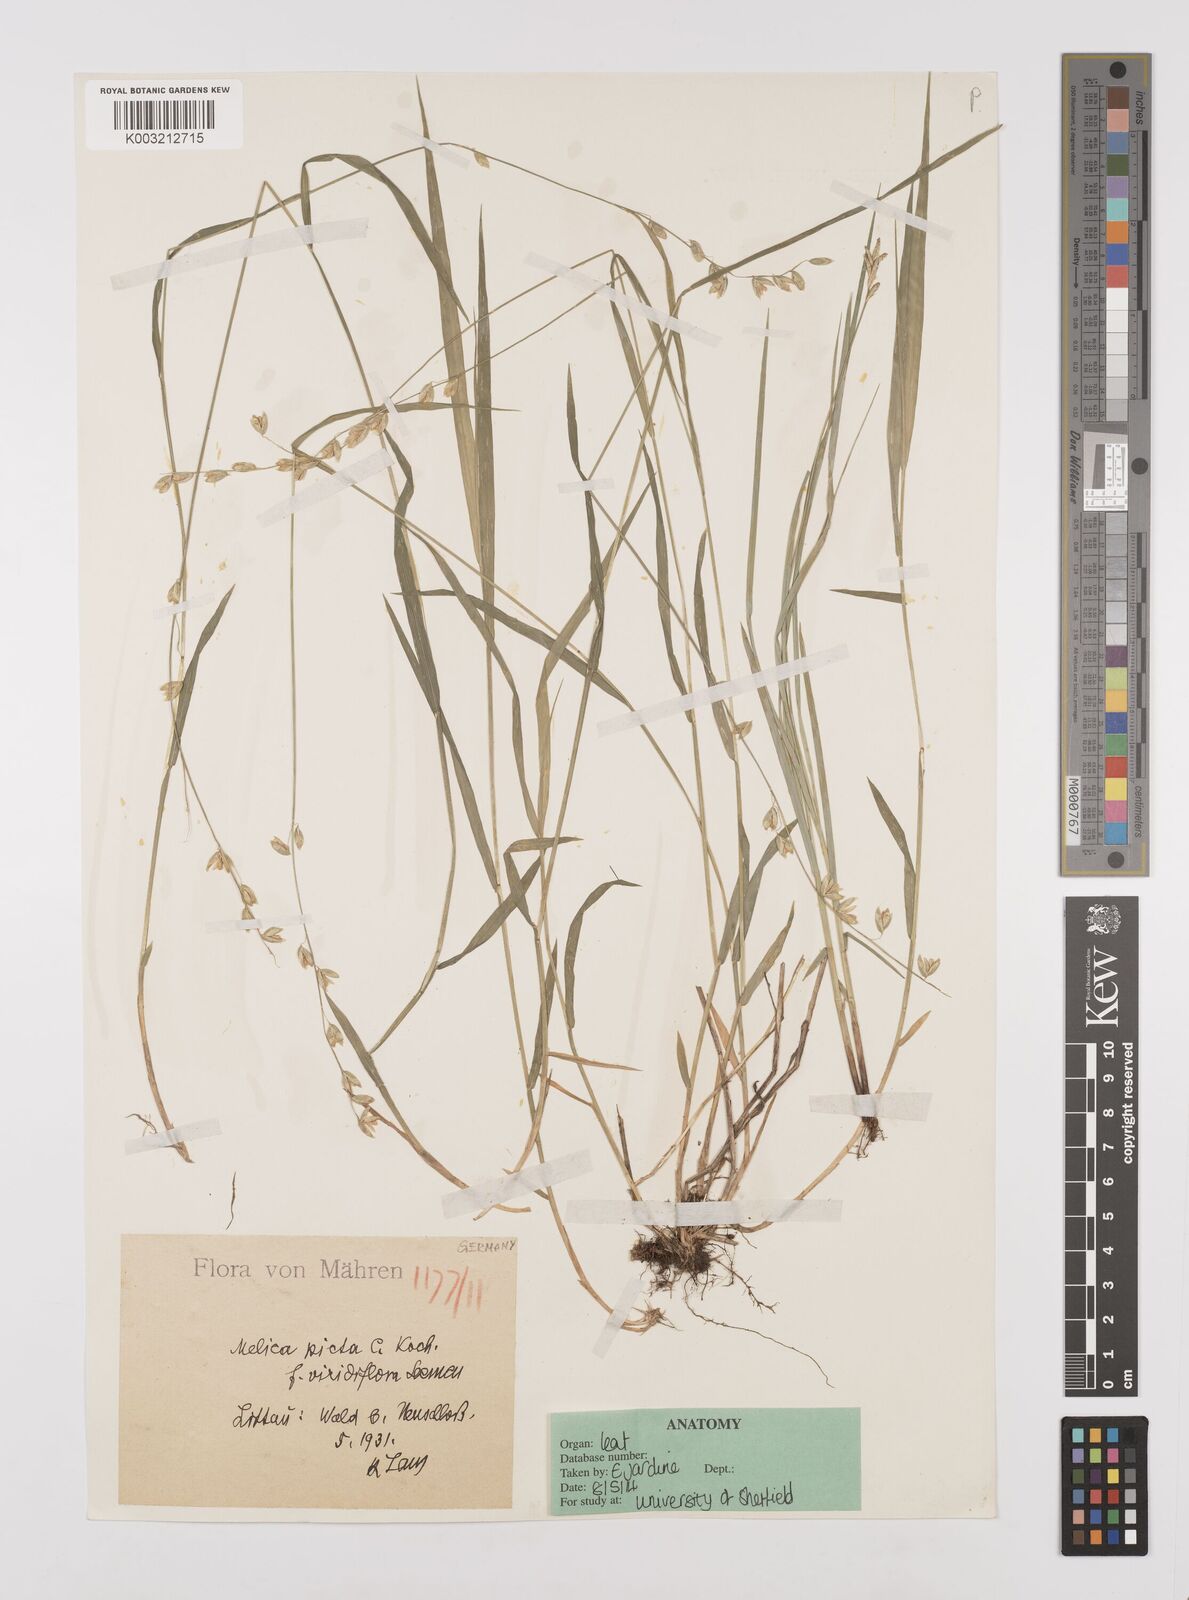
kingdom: Plantae
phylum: Tracheophyta
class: Liliopsida
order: Poales
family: Poaceae
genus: Melica
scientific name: Melica picta
